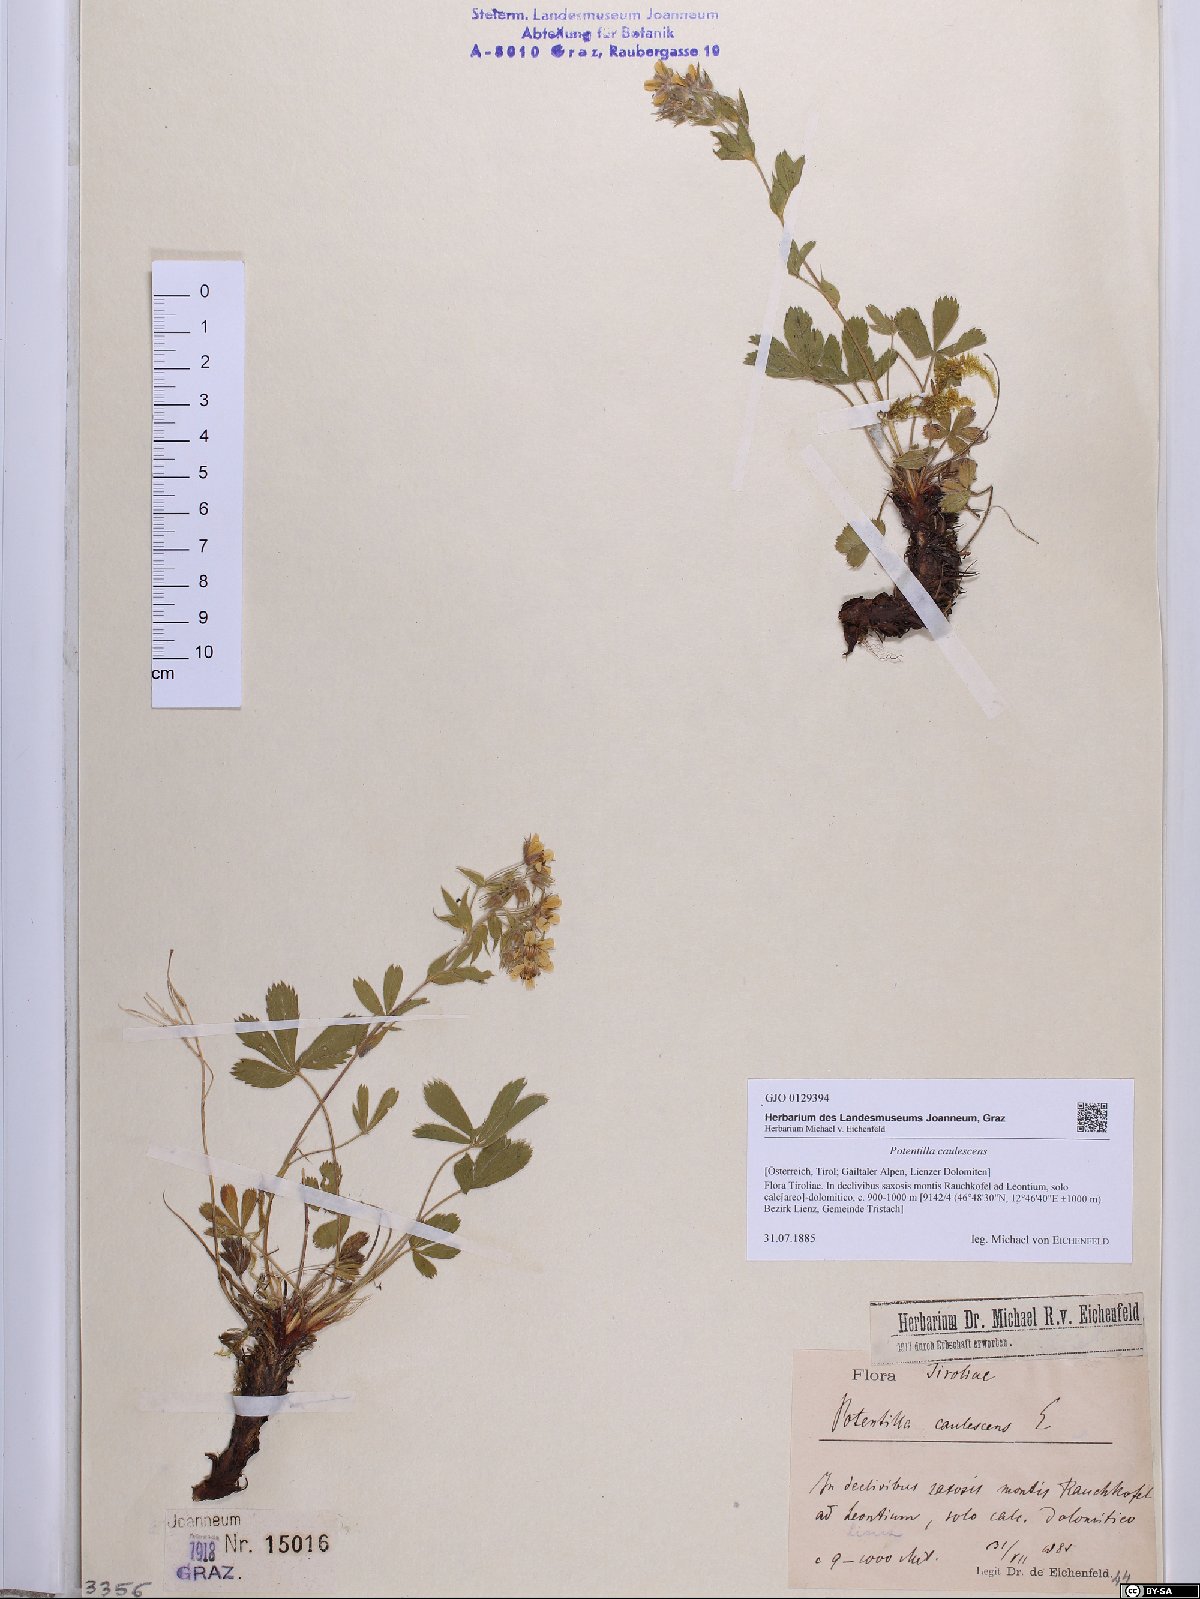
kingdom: Plantae
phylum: Tracheophyta
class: Magnoliopsida
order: Rosales
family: Rosaceae
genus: Potentilla
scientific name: Potentilla caulescens
